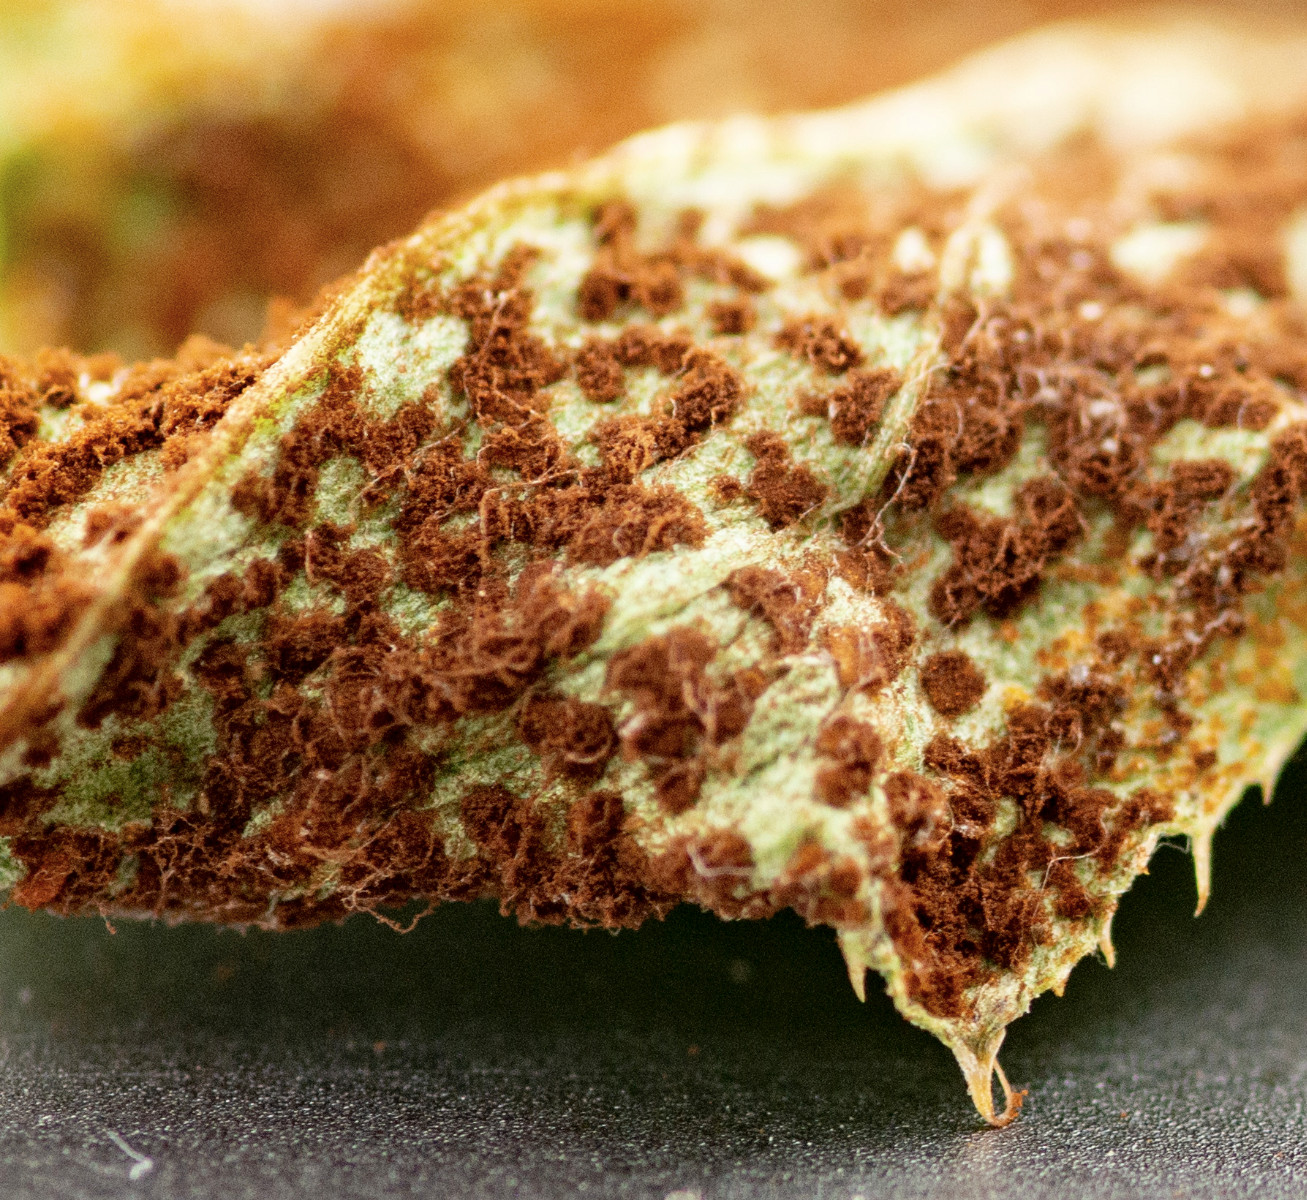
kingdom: Fungi
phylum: Basidiomycota
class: Pucciniomycetes
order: Pucciniales
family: Pucciniaceae
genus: Puccinia
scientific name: Puccinia suaveolens
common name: tidsel-tvecellerust
